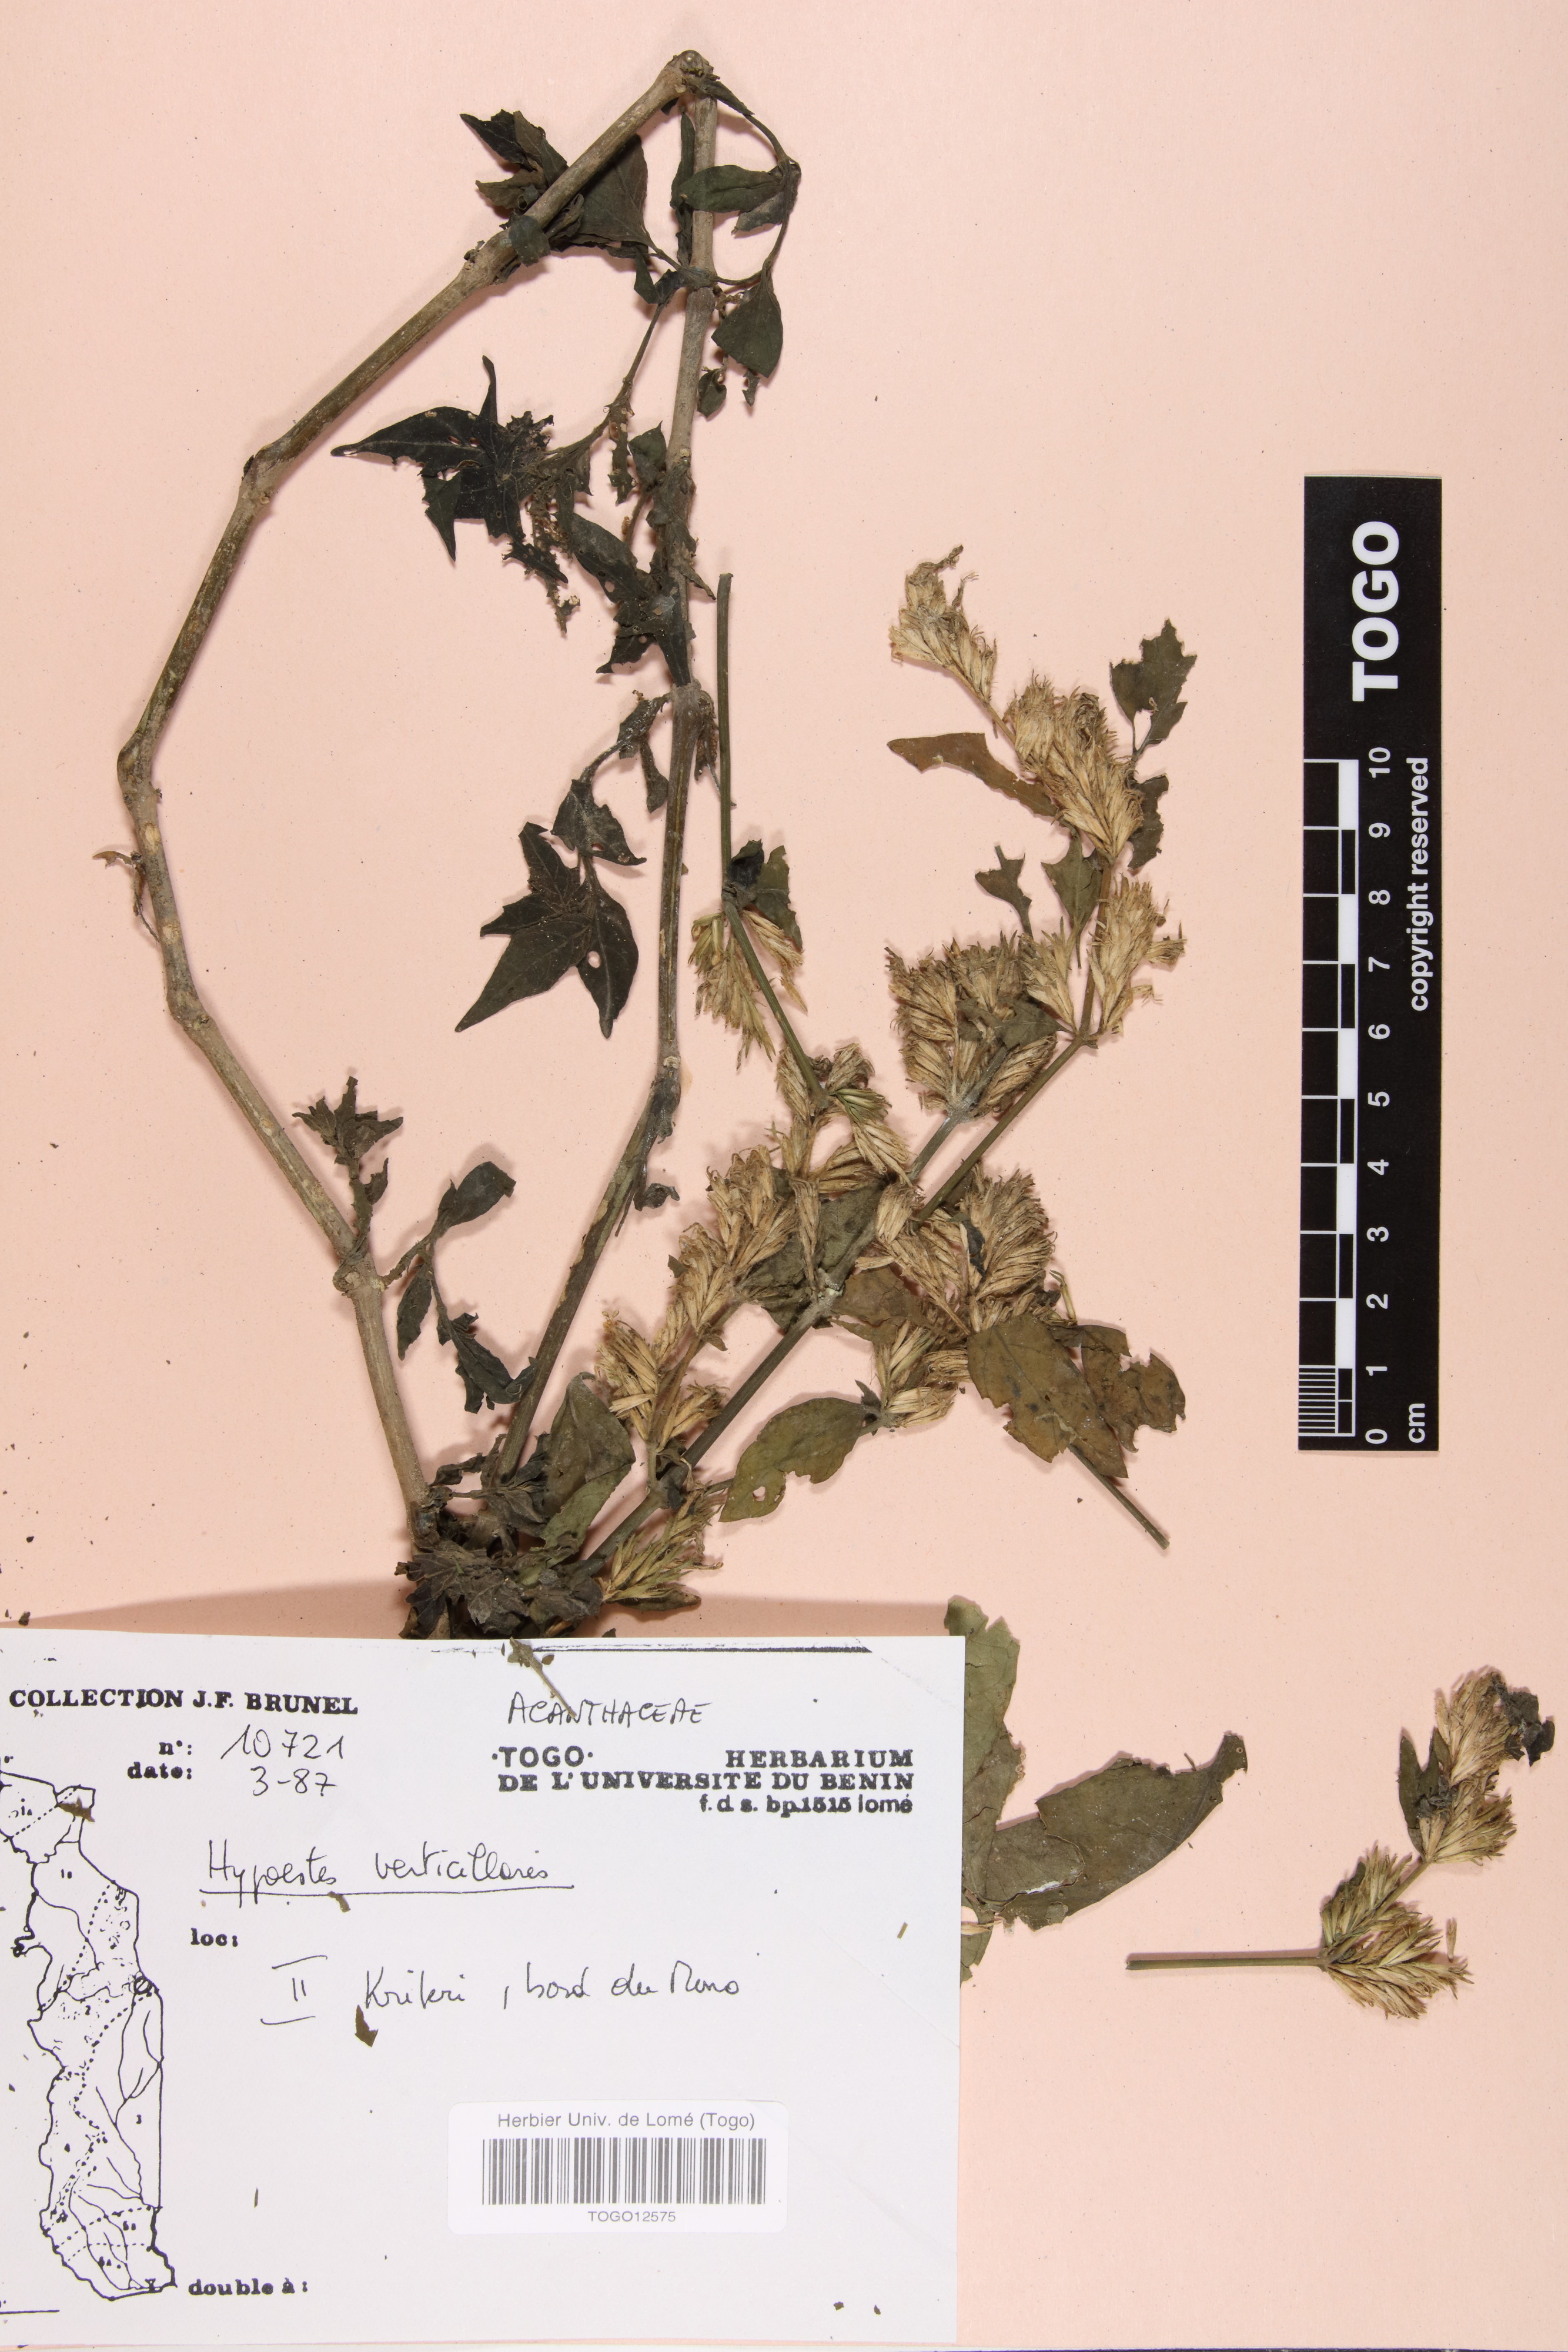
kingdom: Plantae
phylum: Tracheophyta
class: Magnoliopsida
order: Lamiales
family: Acanthaceae
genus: Hypoestes
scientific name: Hypoestes aristata
